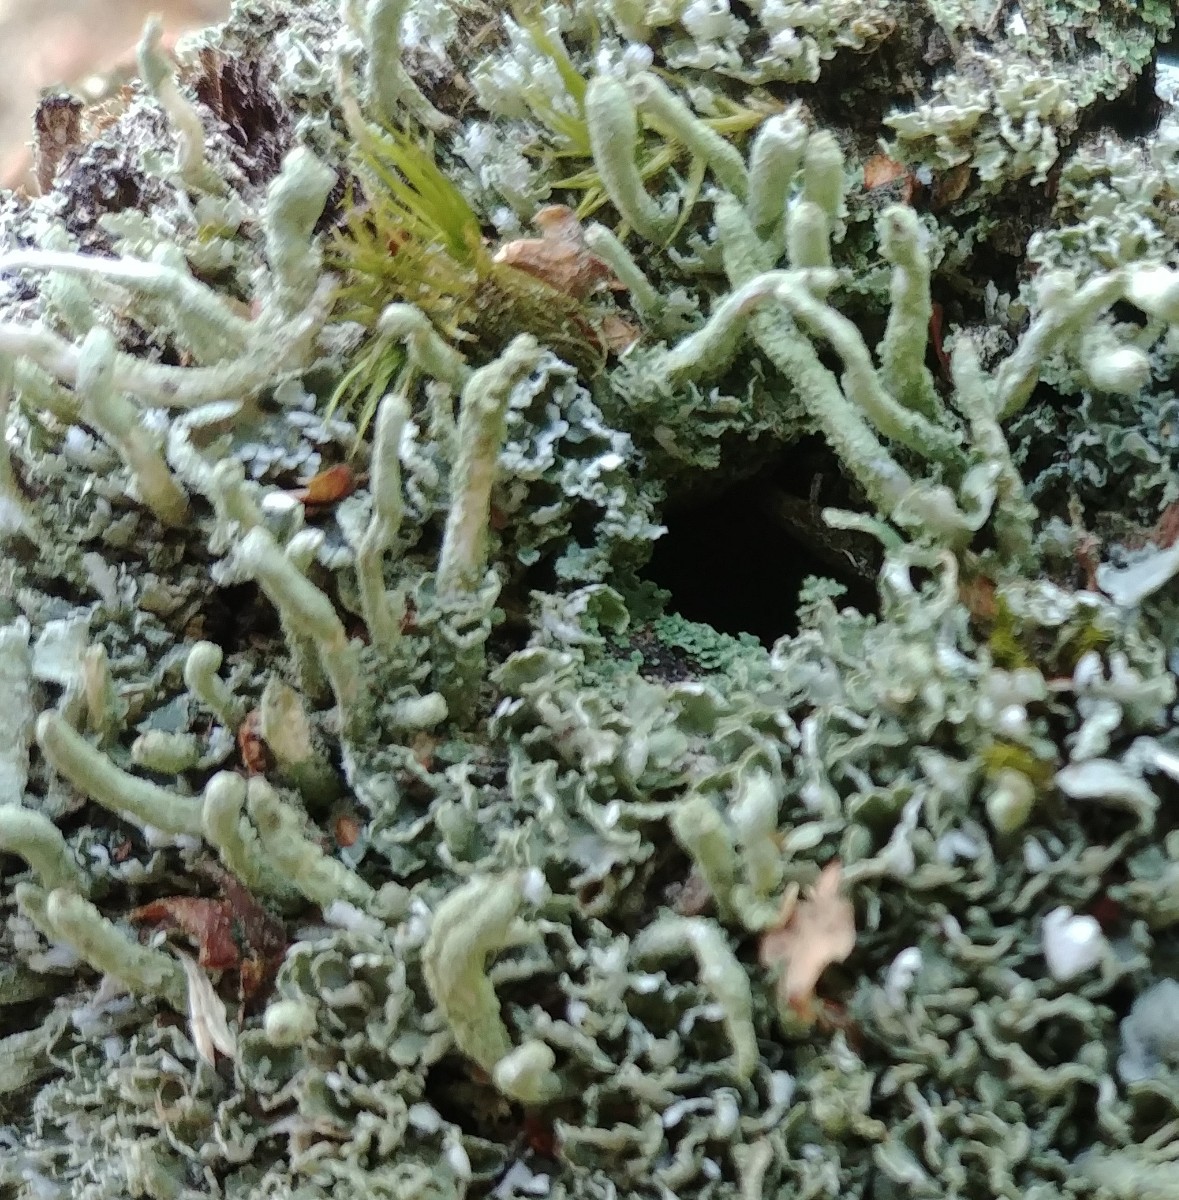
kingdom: Fungi
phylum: Ascomycota
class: Lecanoromycetes
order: Lecanorales
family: Cladoniaceae
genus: Cladonia
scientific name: Cladonia ochrochlora
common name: stød-bægerlav
